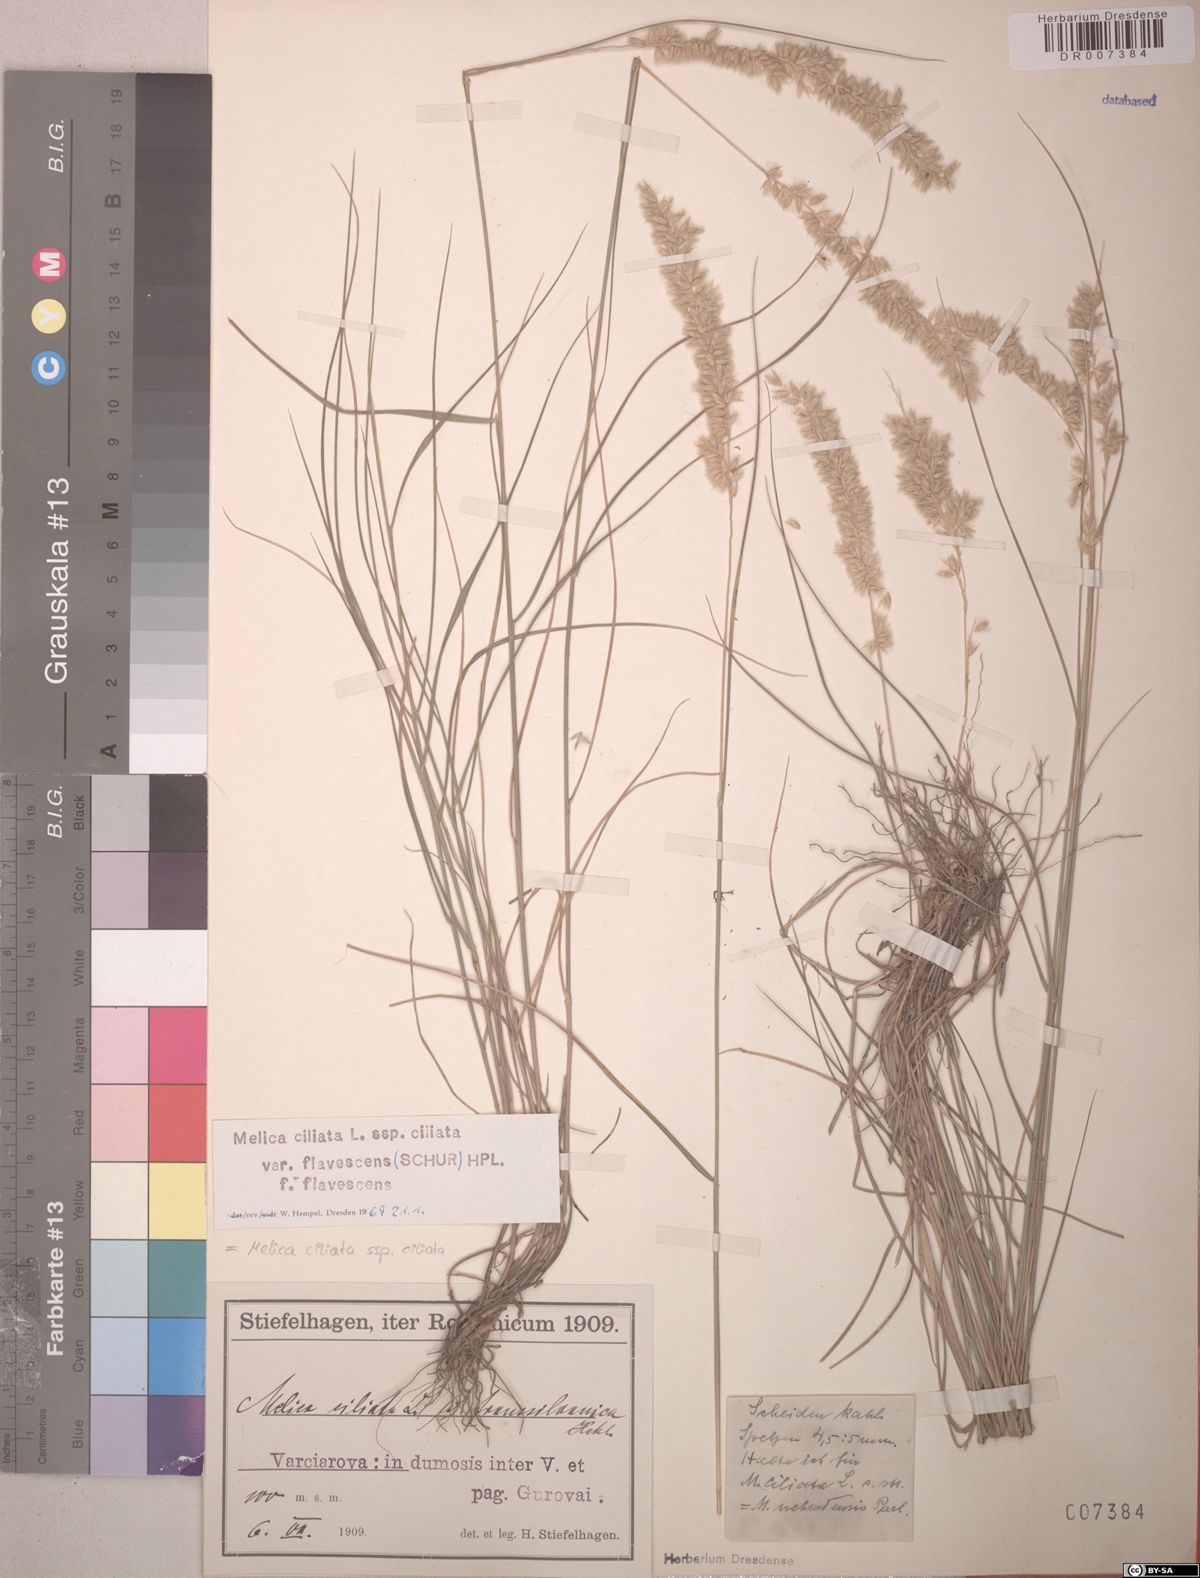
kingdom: Plantae
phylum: Tracheophyta
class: Liliopsida
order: Poales
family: Poaceae
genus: Melica
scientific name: Melica ciliata
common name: Hairy melicgrass
